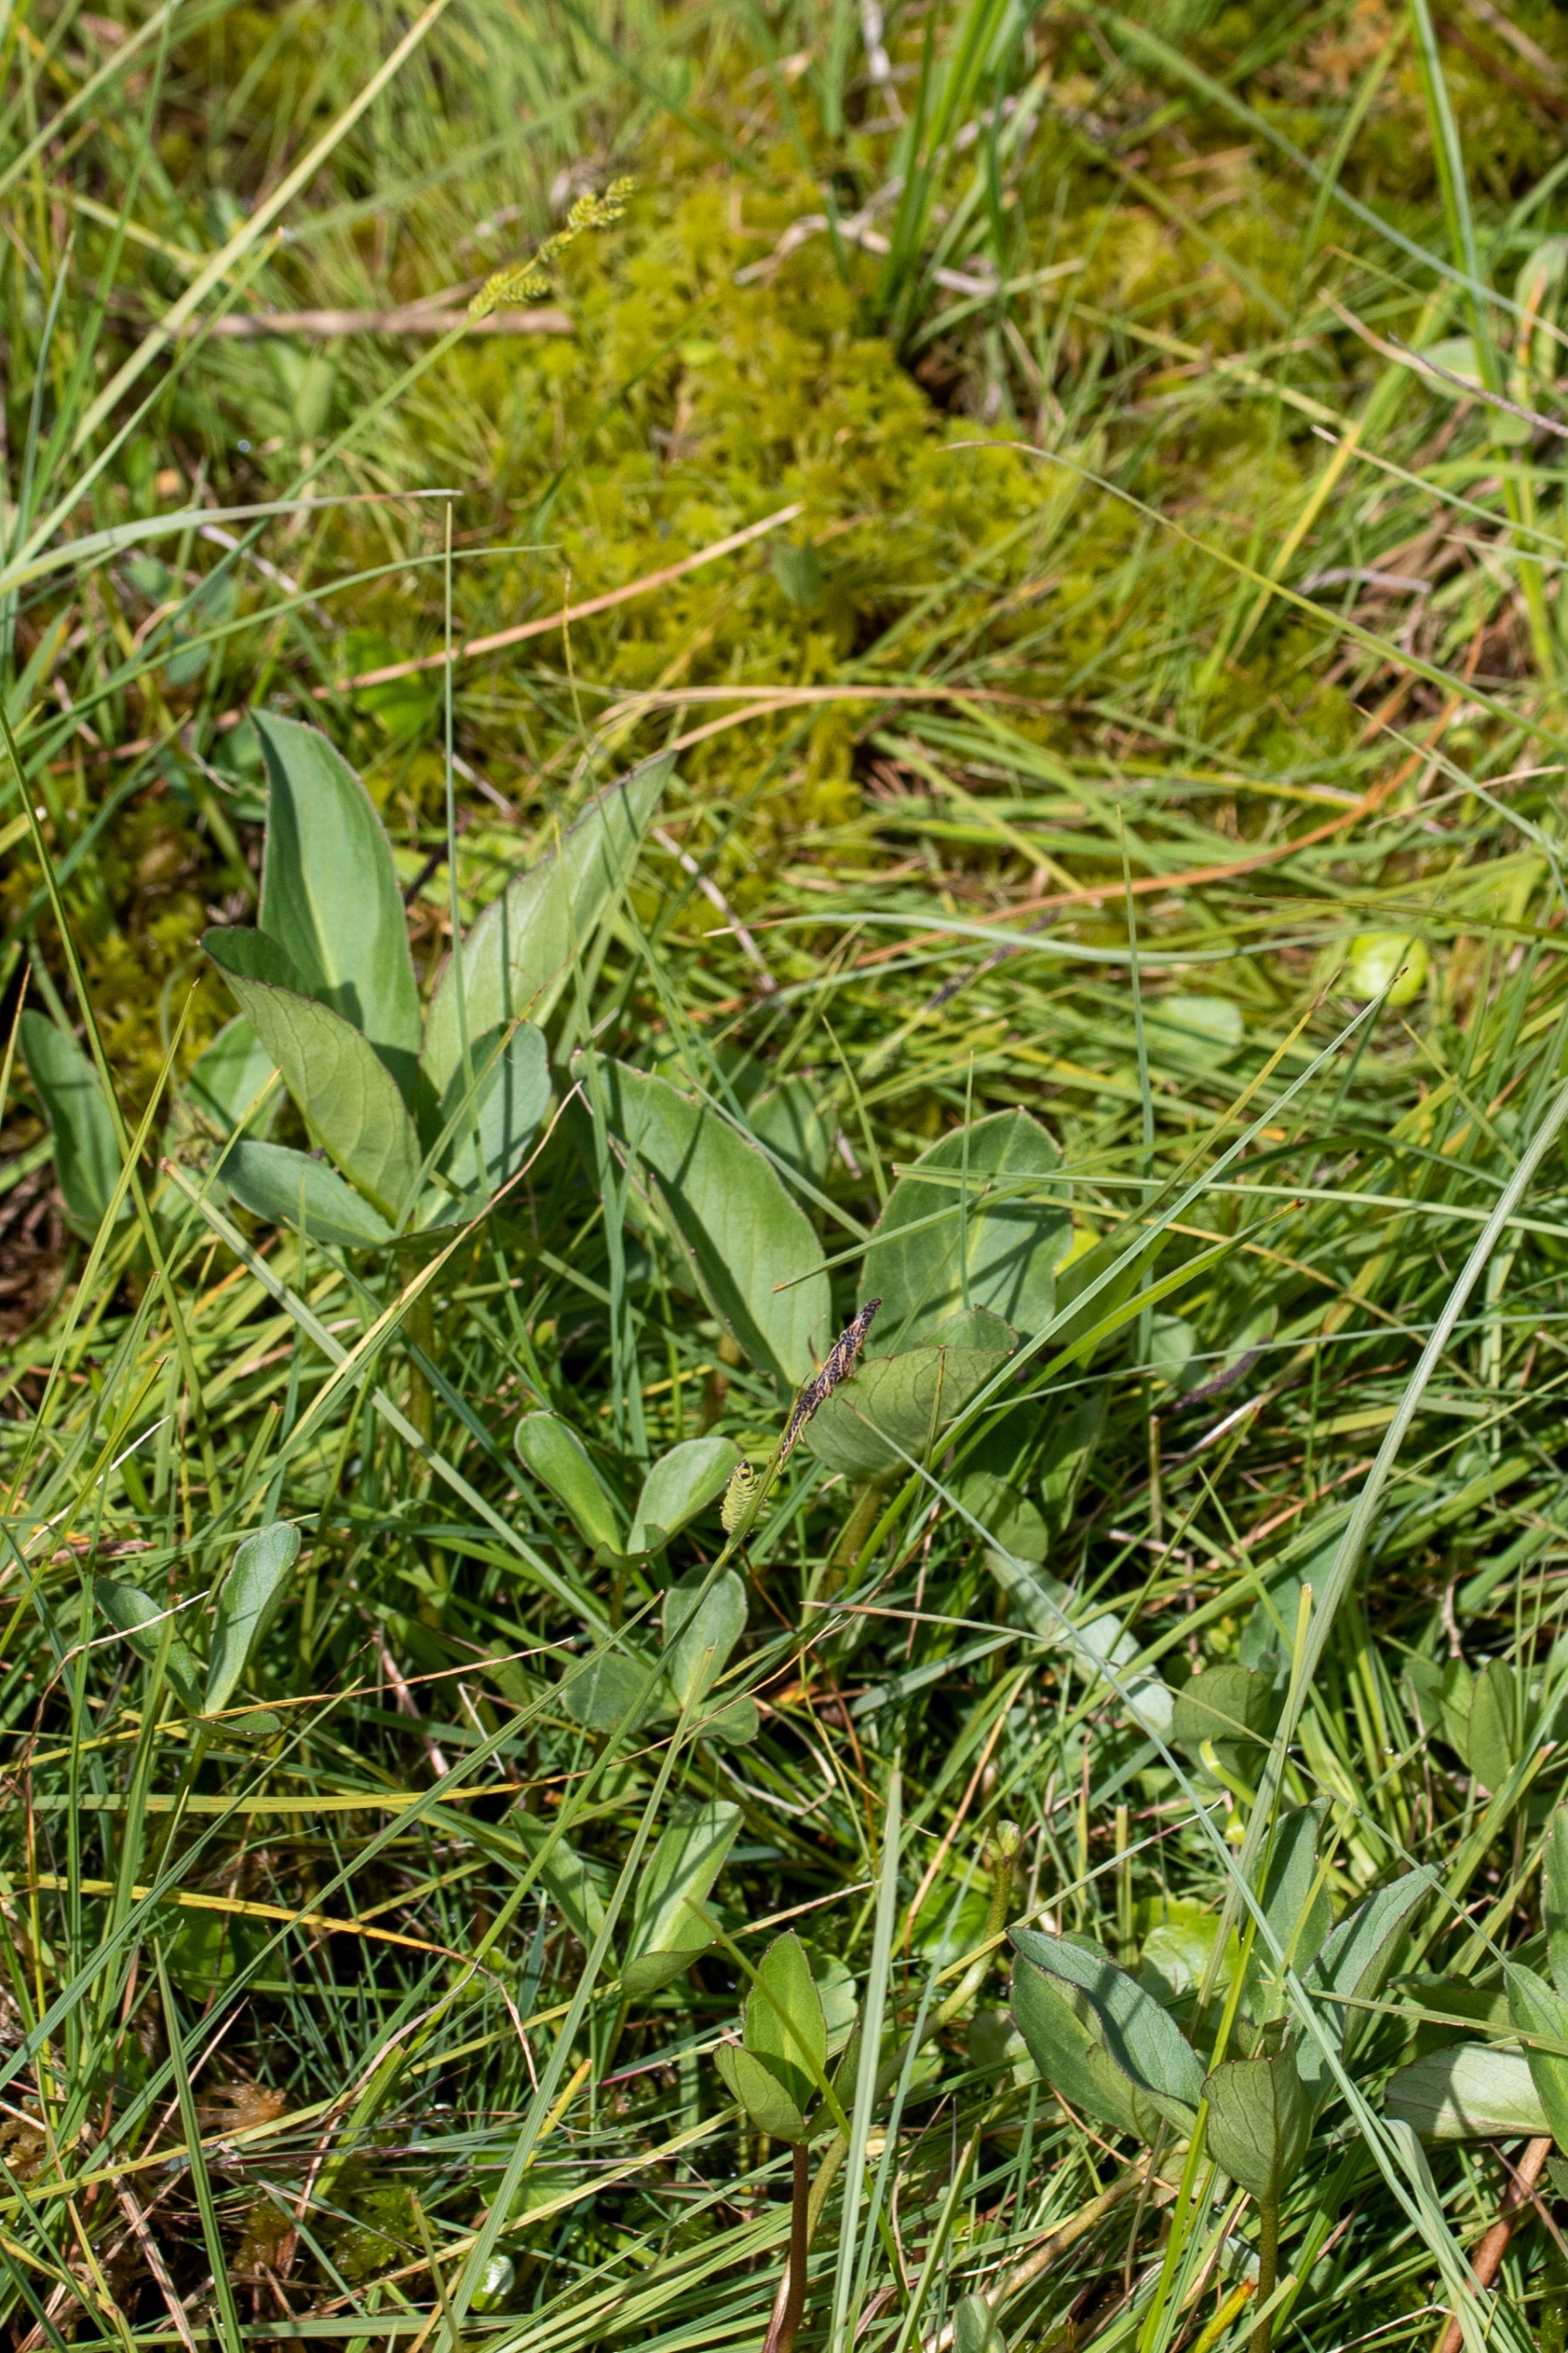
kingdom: Plantae
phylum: Tracheophyta
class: Magnoliopsida
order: Asterales
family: Menyanthaceae
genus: Menyanthes
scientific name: Menyanthes trifoliata
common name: Bukkeblad
